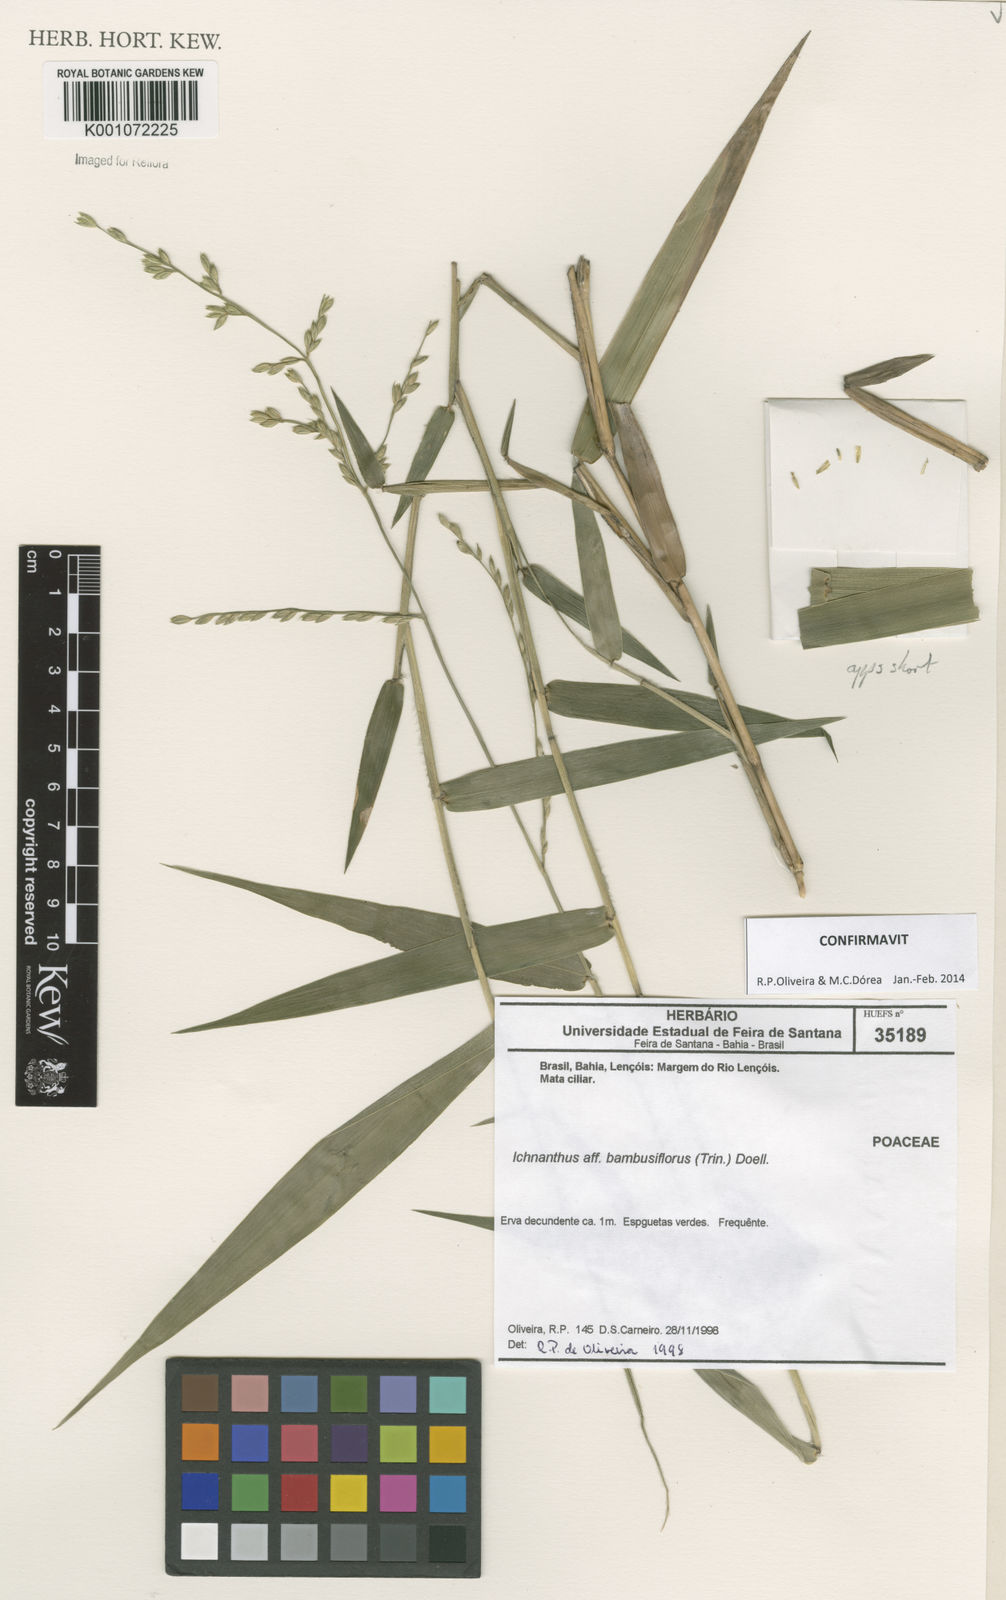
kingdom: Plantae
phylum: Tracheophyta
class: Liliopsida
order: Poales
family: Poaceae
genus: Ichnanthus
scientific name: Ichnanthus
